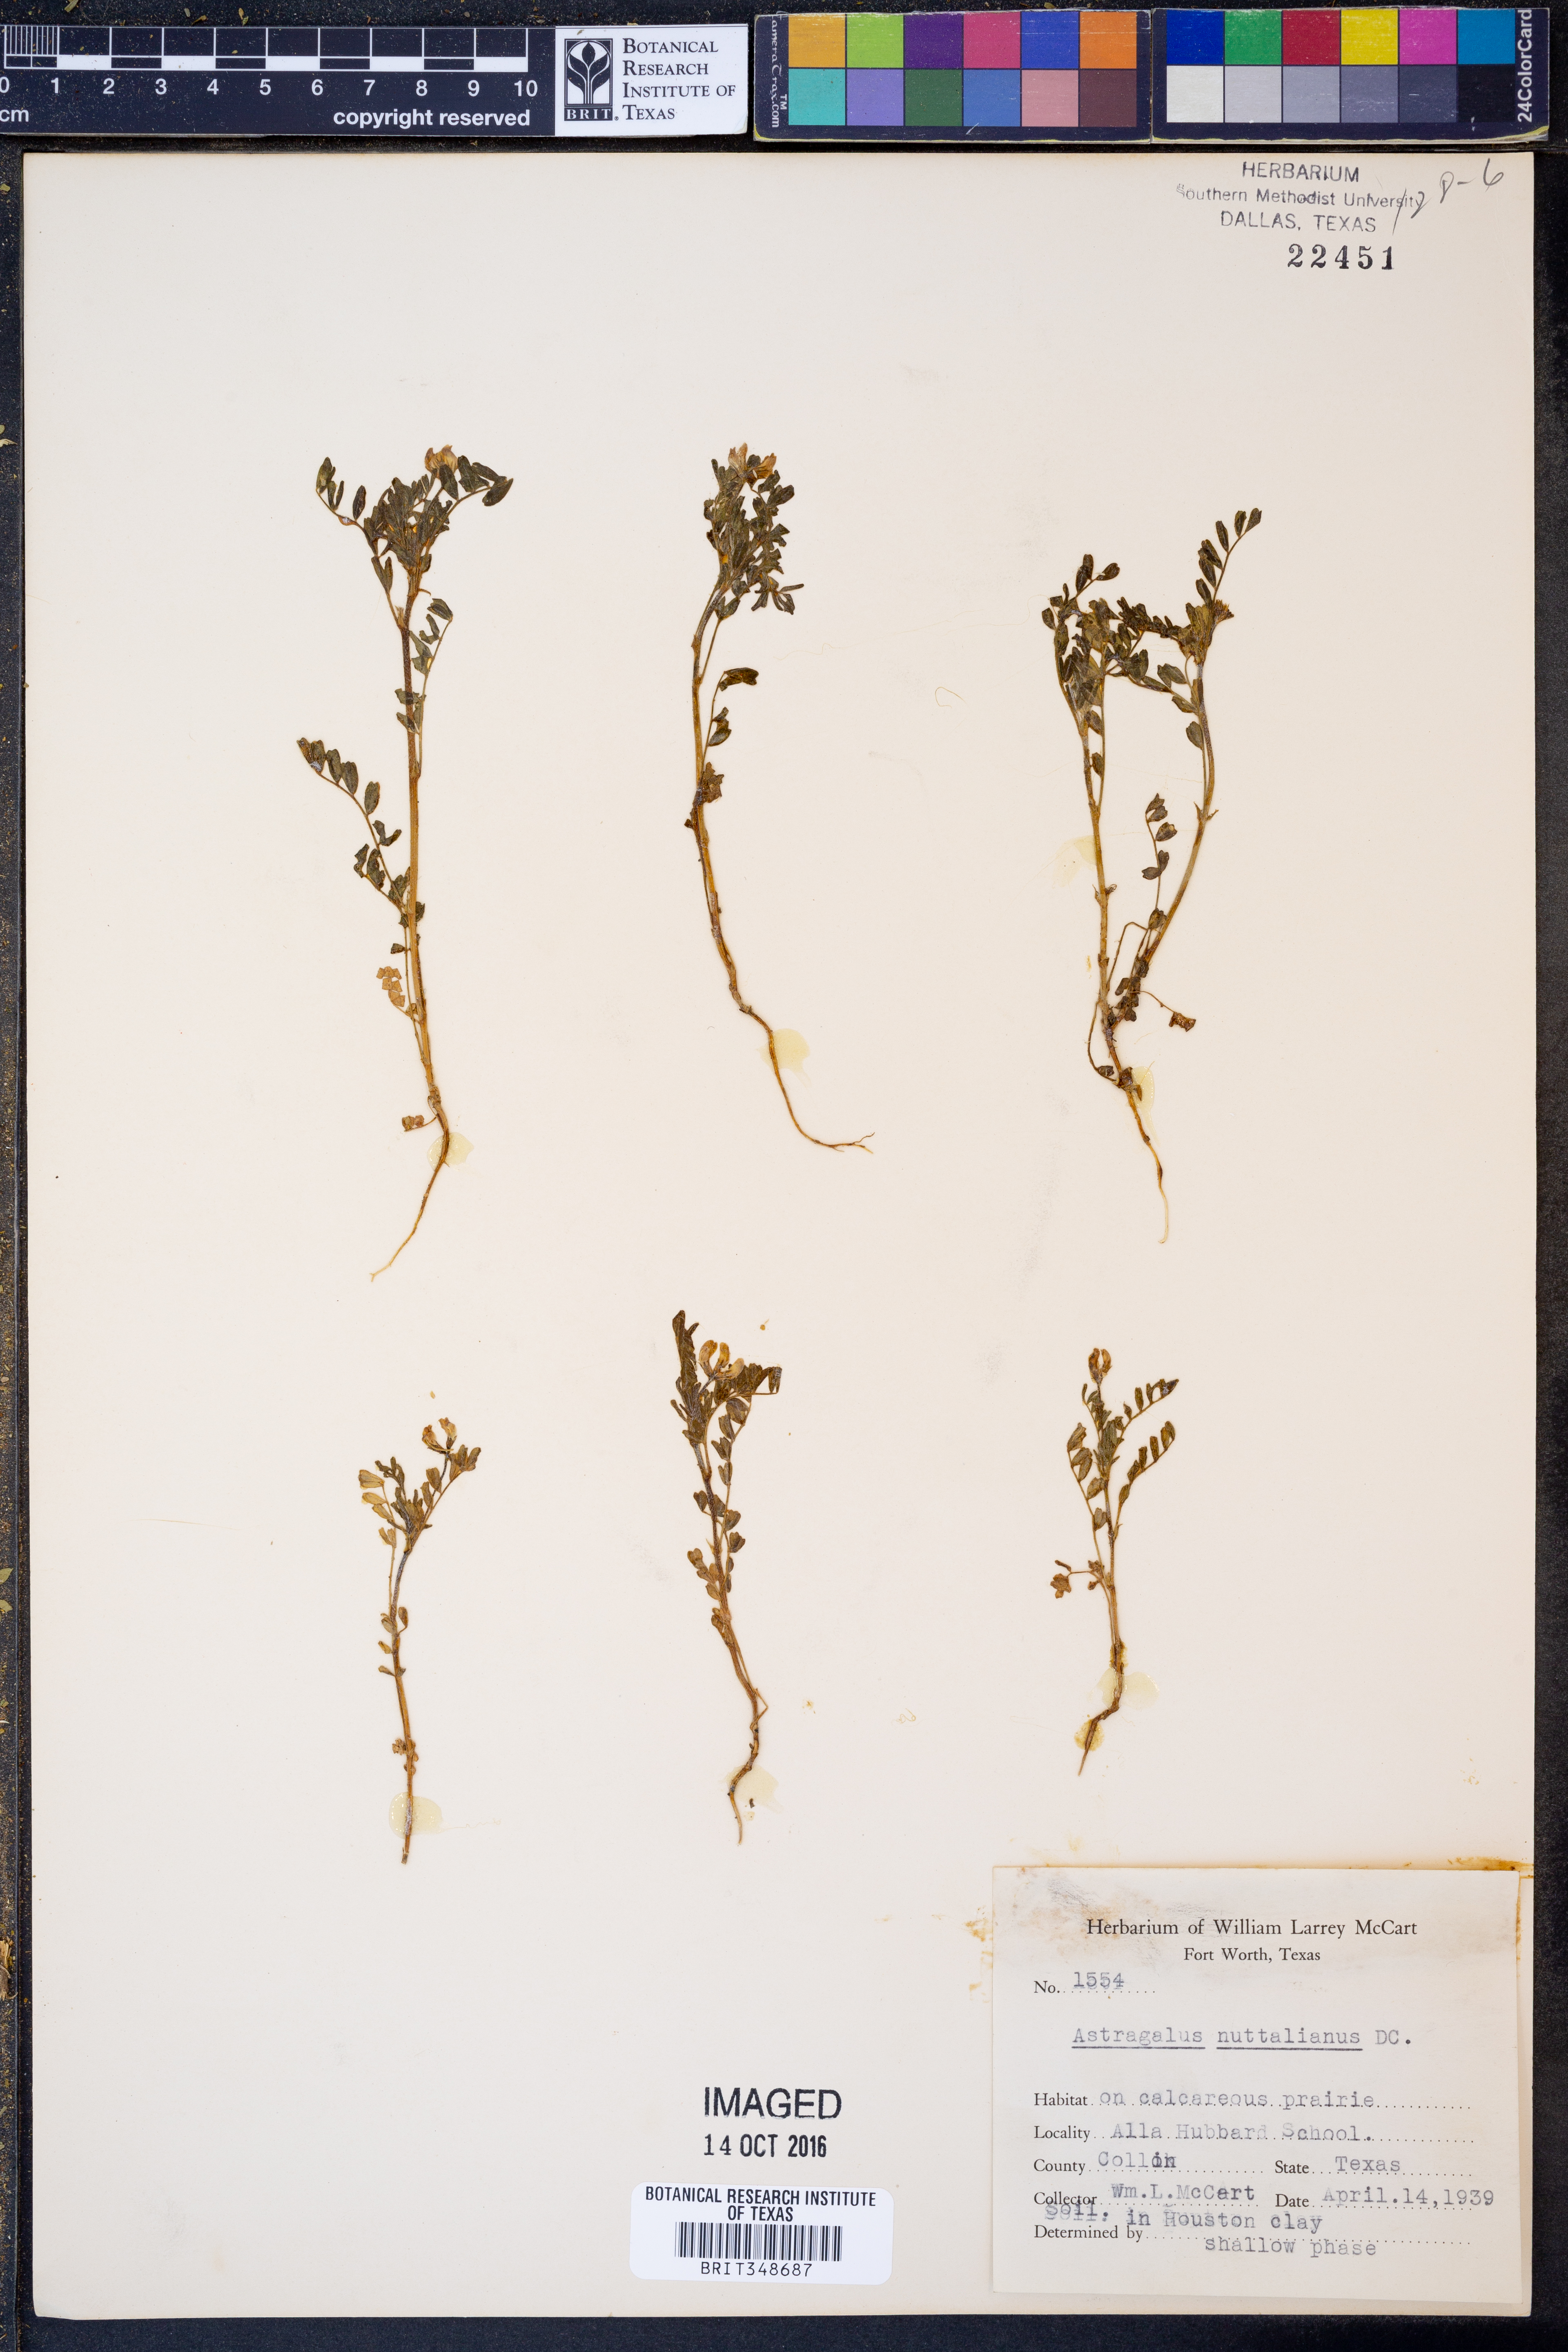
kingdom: Plantae
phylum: Tracheophyta
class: Magnoliopsida
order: Fabales
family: Fabaceae
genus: Astragalus
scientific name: Astragalus nuttallianus
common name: Smallflowered milkvetch
